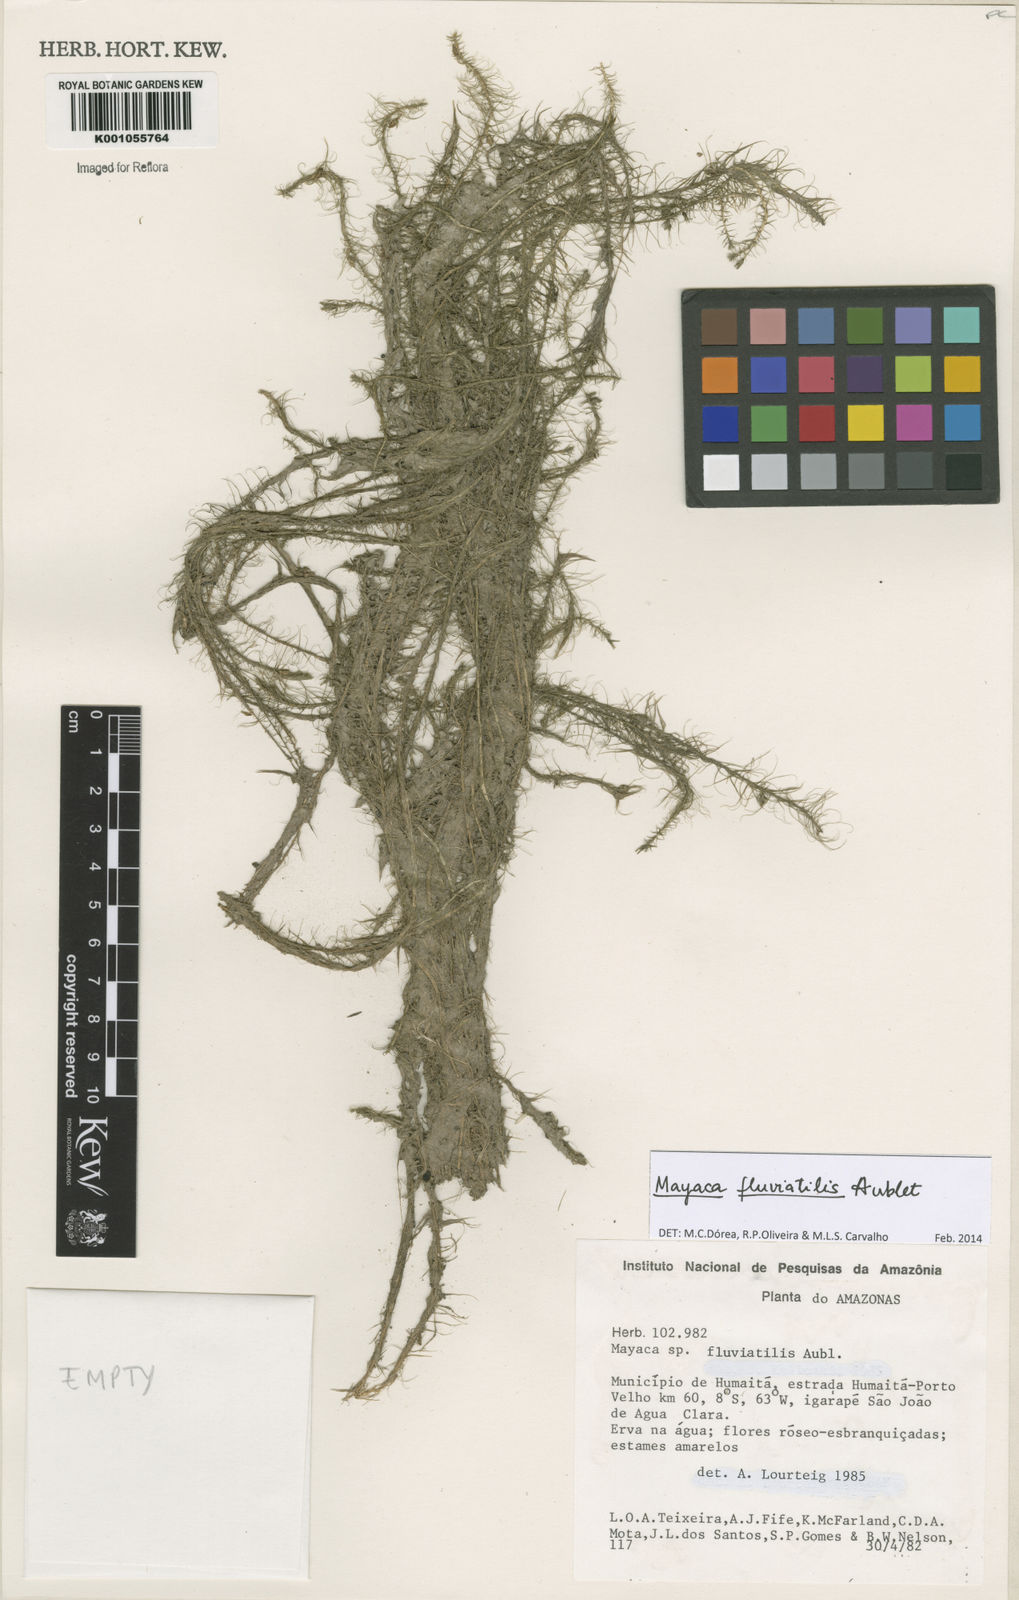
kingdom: Plantae
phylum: Tracheophyta
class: Liliopsida
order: Poales
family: Mayacaceae
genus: Mayaca
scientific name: Mayaca
